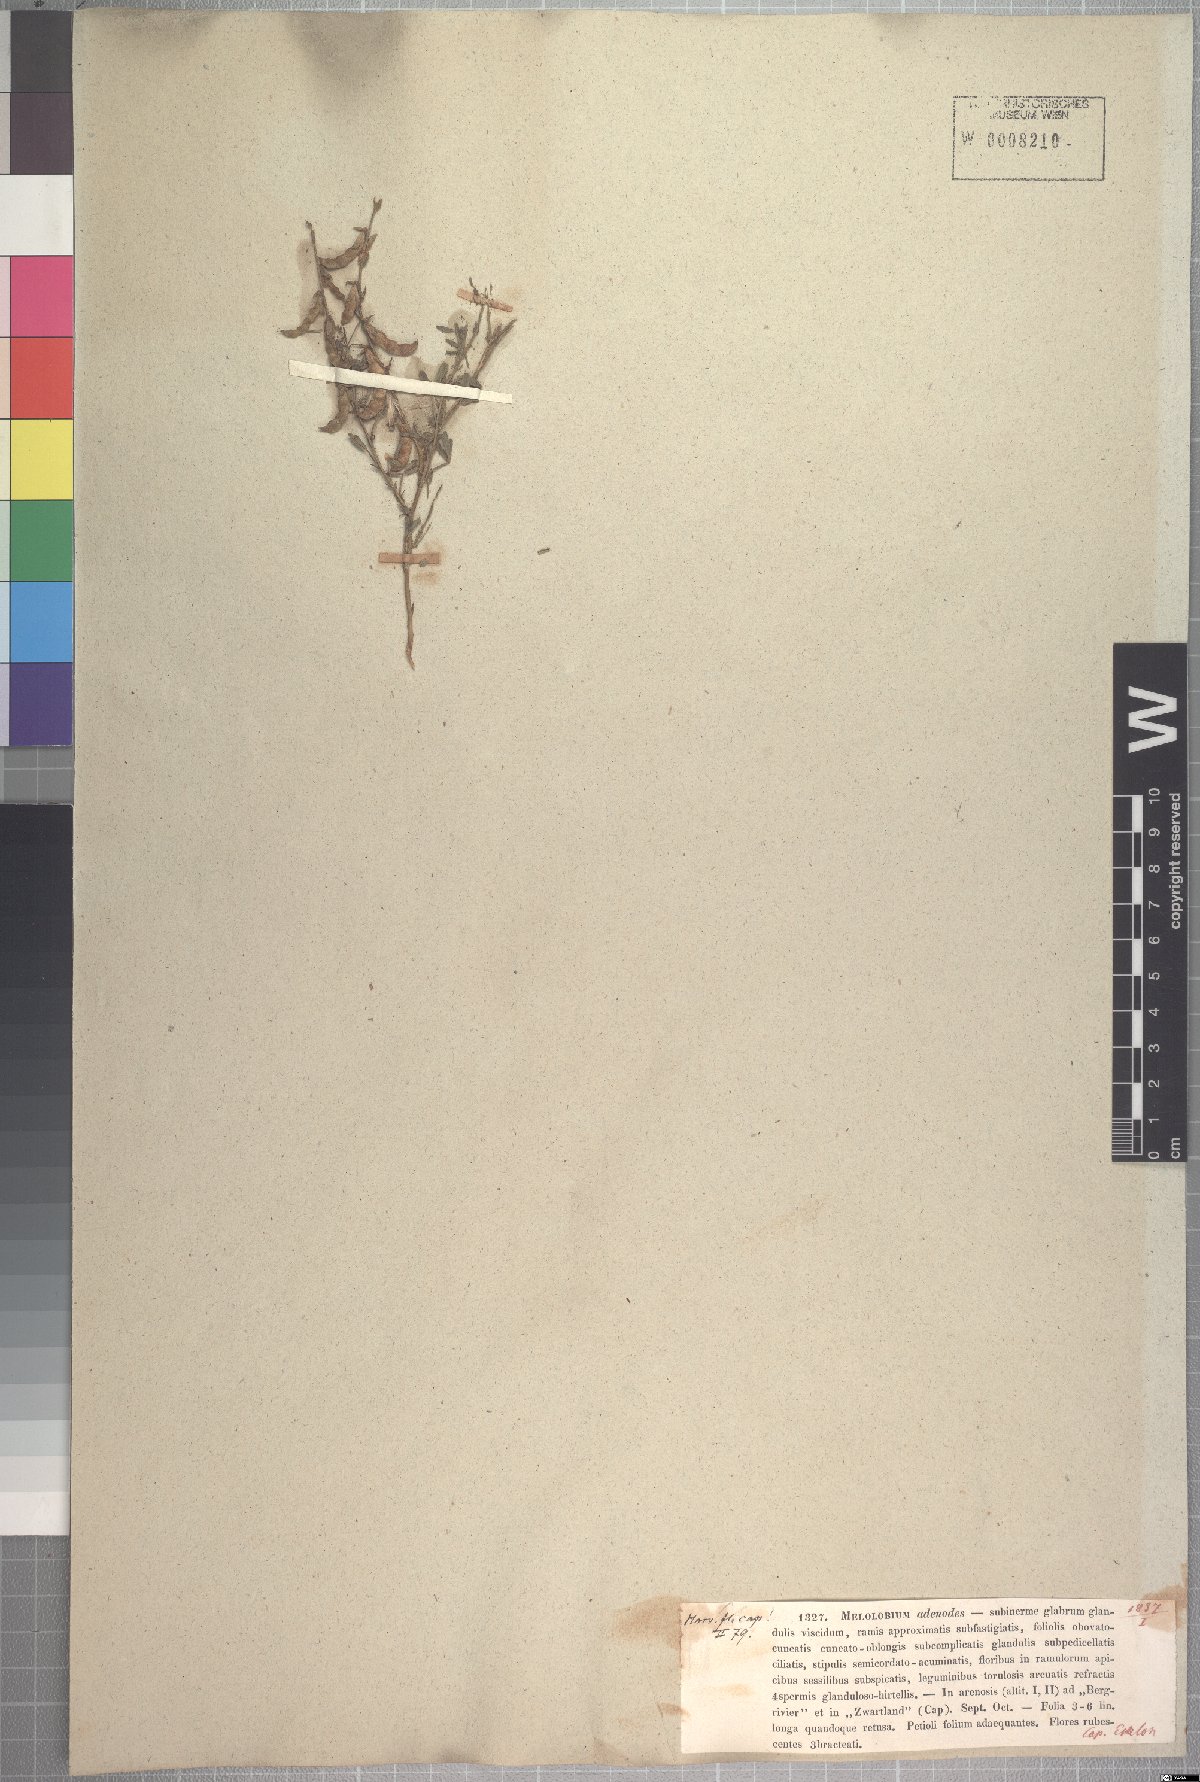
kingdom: Plantae
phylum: Tracheophyta
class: Magnoliopsida
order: Fabales
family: Fabaceae
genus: Melolobium
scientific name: Melolobium adenodes
